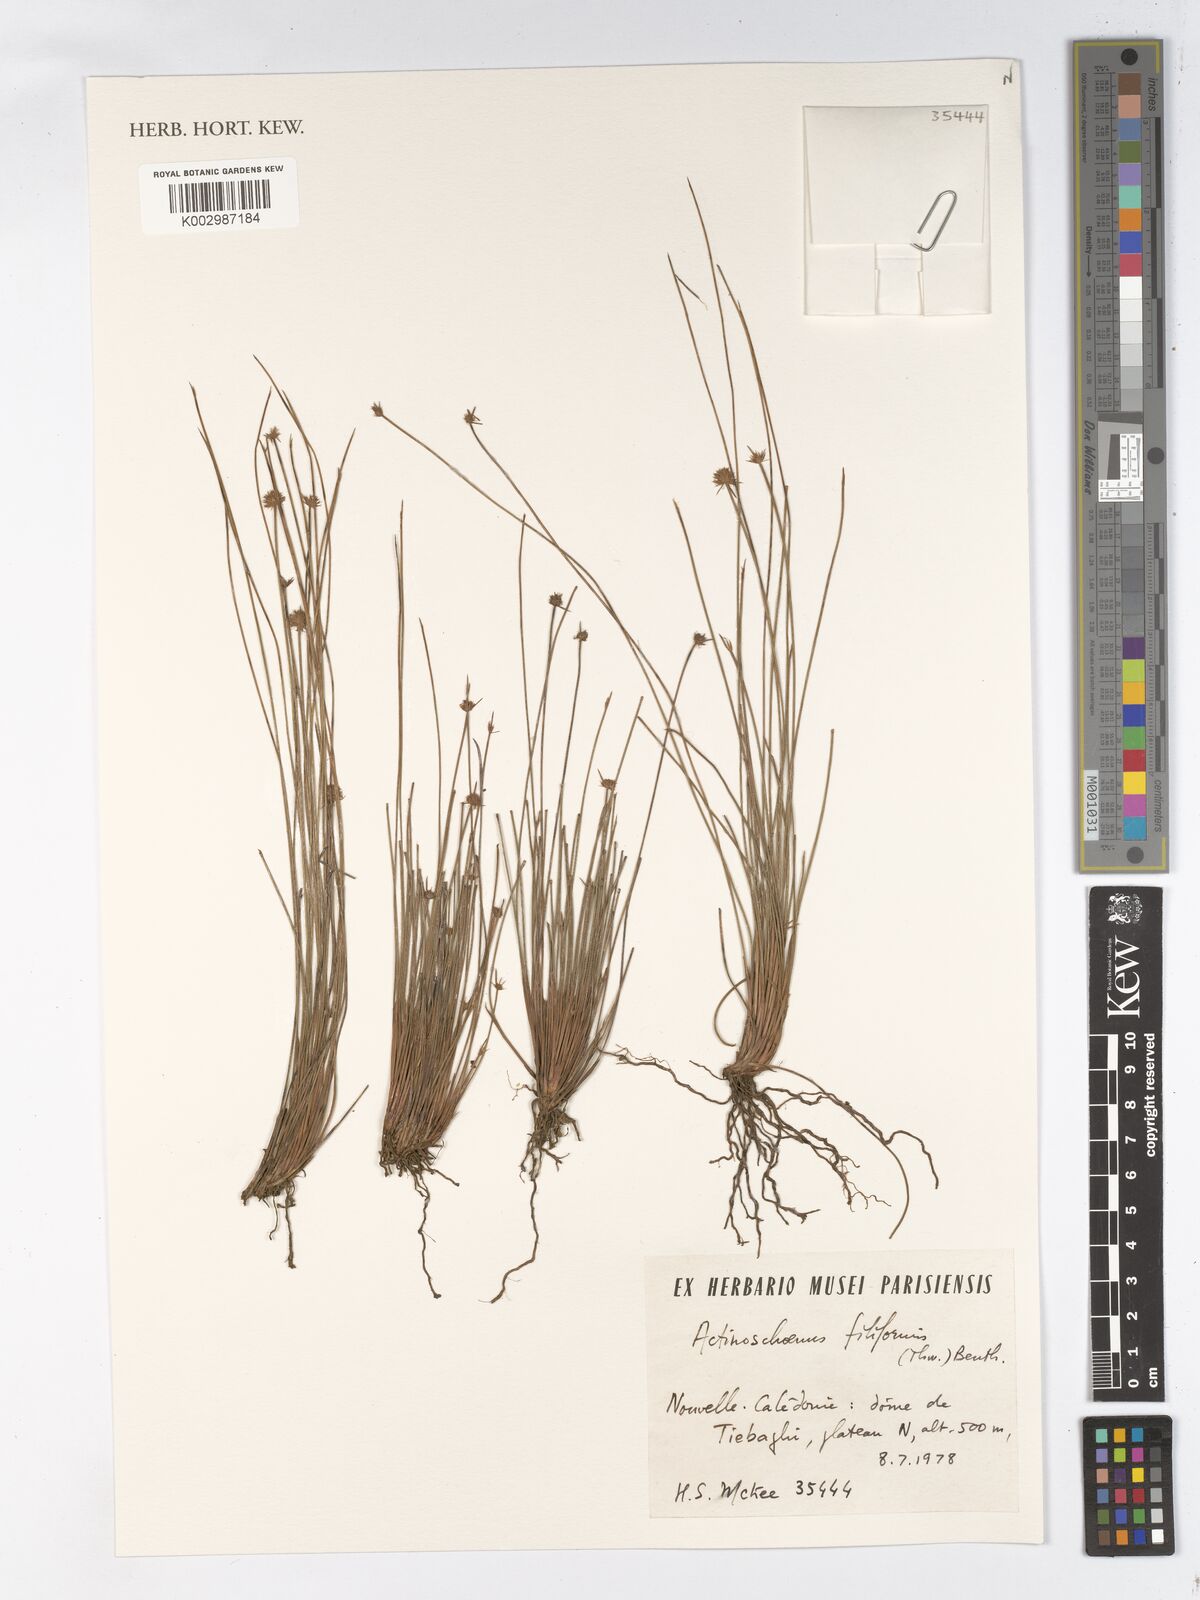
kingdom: Plantae
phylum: Tracheophyta
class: Liliopsida
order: Poales
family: Cyperaceae
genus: Actinoschoenus
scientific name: Actinoschoenus aphyllus
